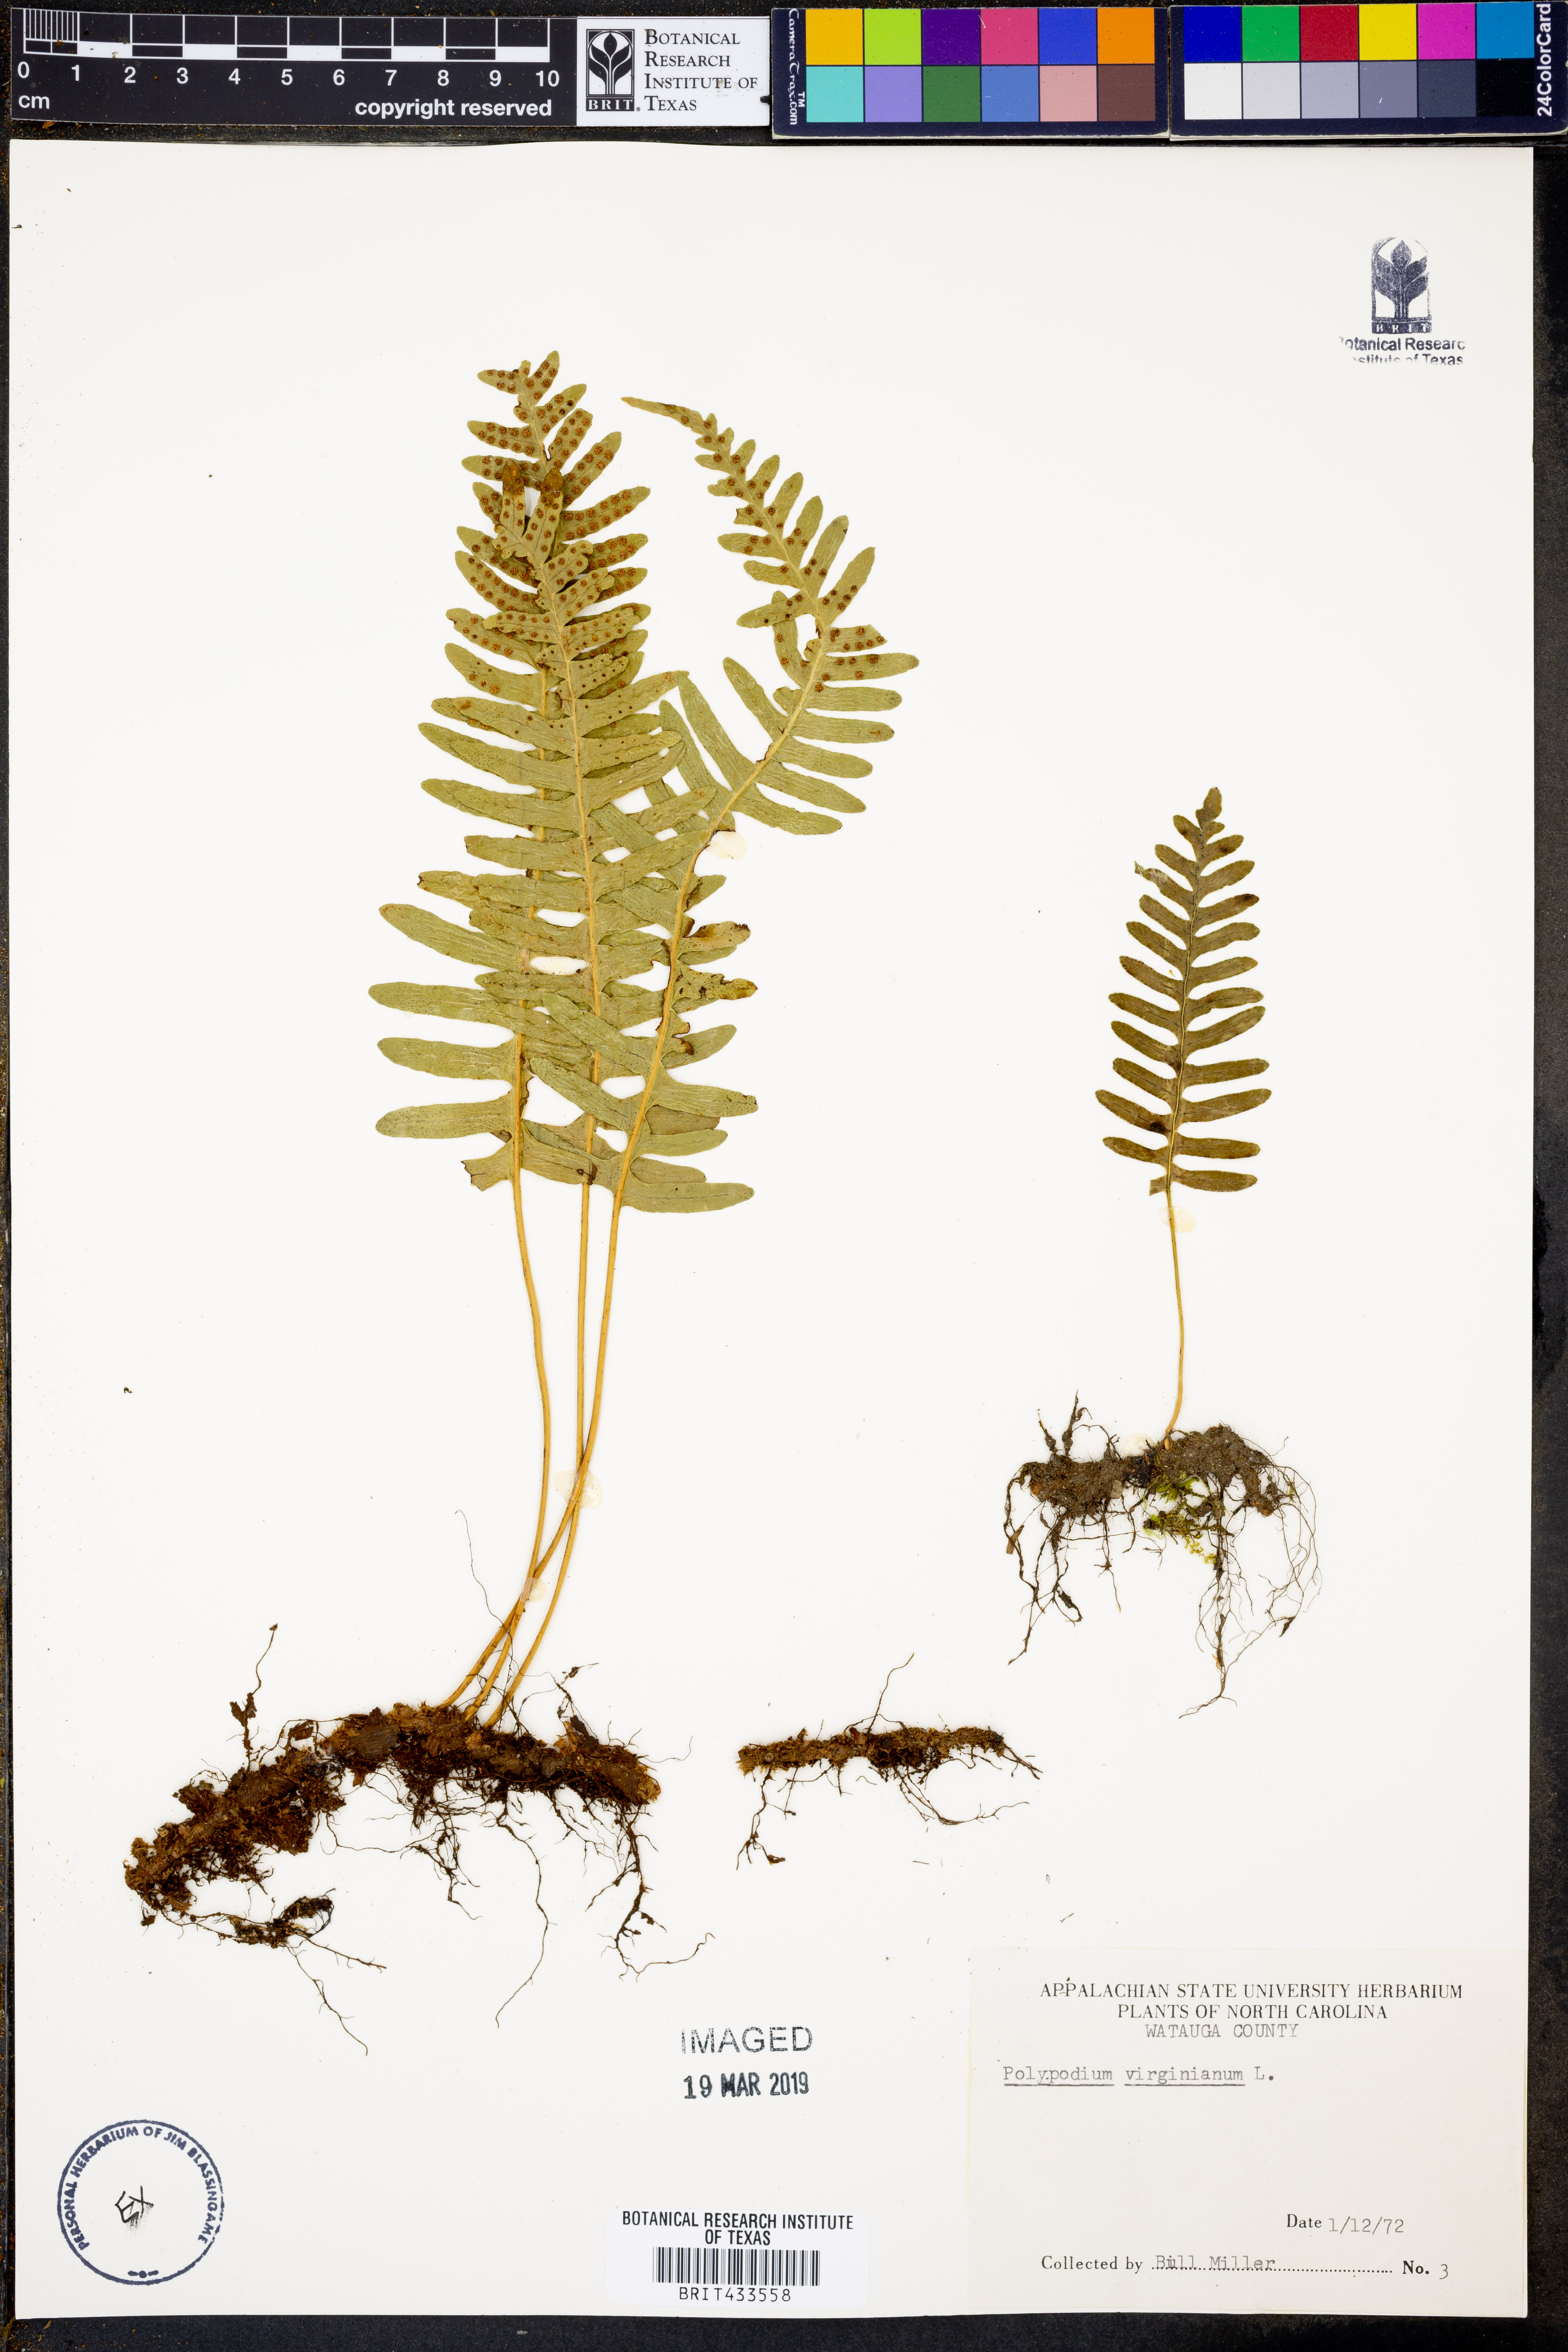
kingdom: Plantae
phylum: Tracheophyta
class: Polypodiopsida
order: Polypodiales
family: Polypodiaceae
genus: Polypodium
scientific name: Polypodium virginianum
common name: American wall fern
